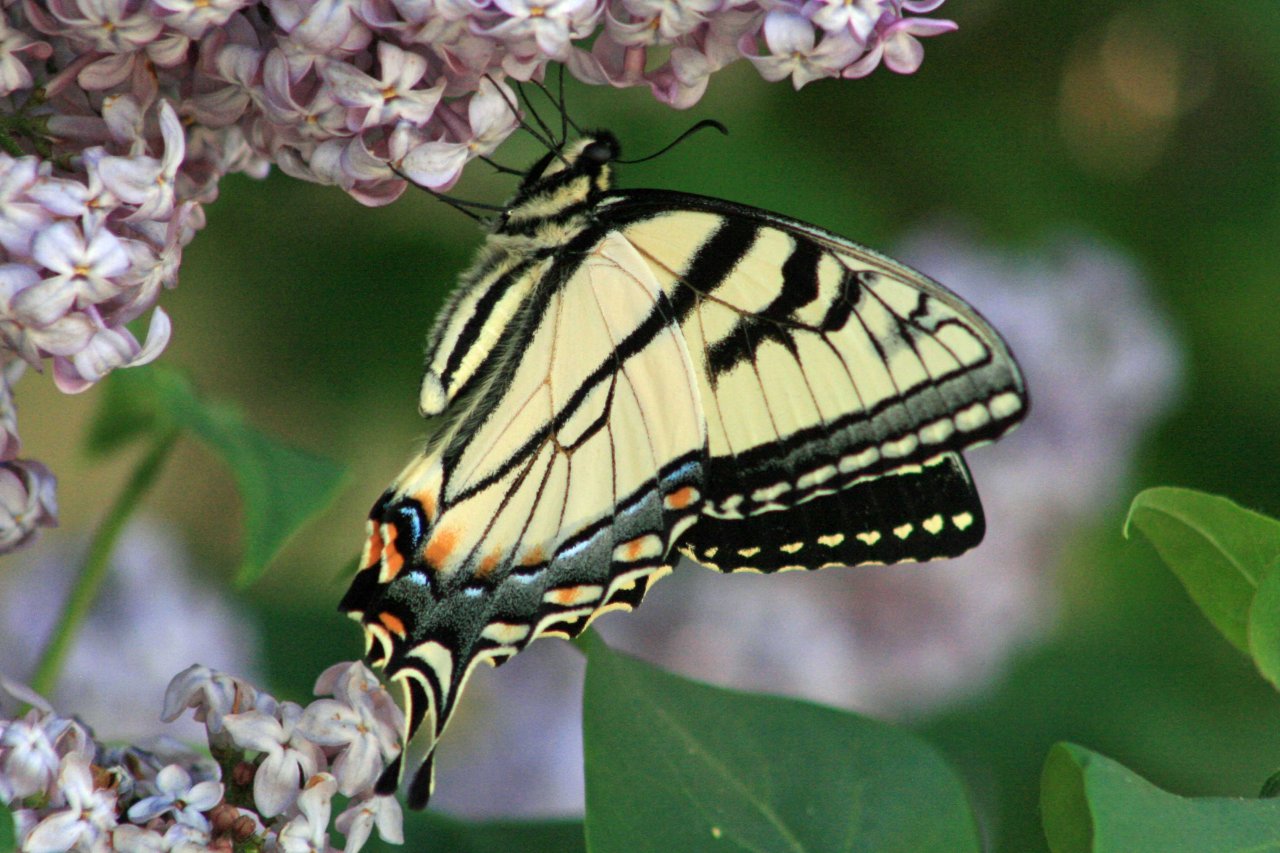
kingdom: Animalia
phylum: Arthropoda
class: Insecta
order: Lepidoptera
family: Papilionidae
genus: Pterourus
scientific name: Pterourus glaucus
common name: Eastern Tiger Swallowtail
